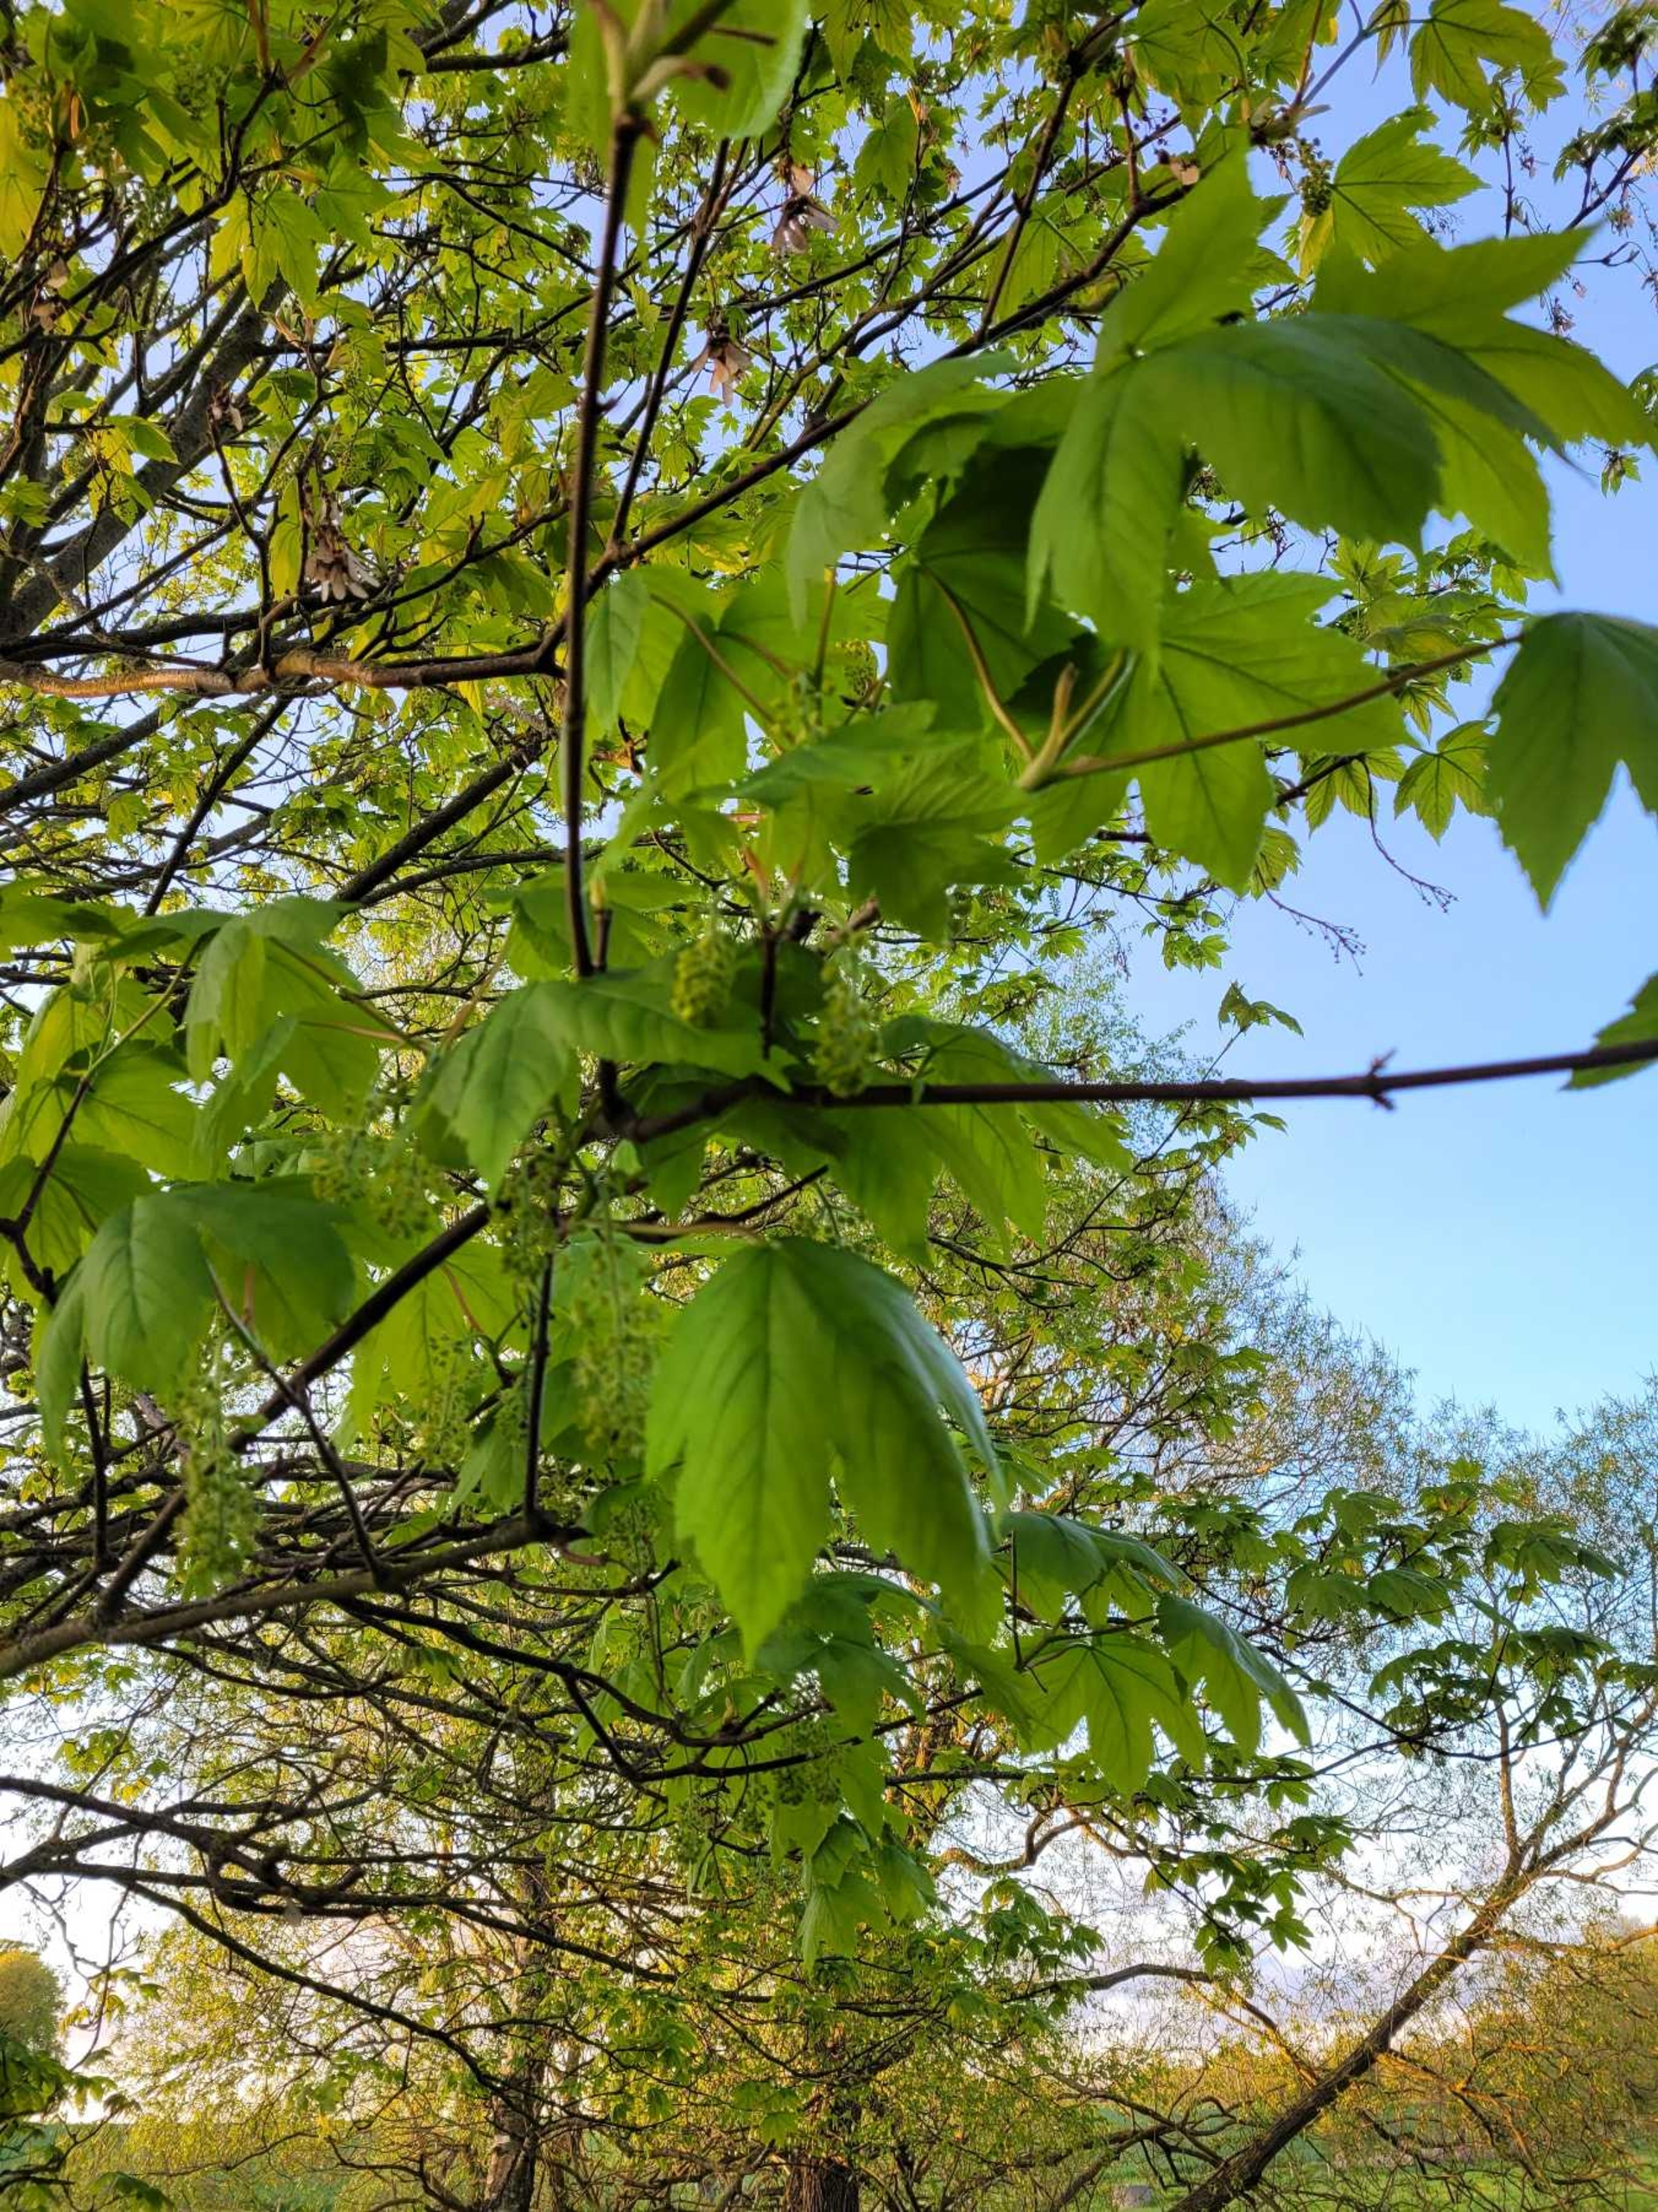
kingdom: Plantae
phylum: Tracheophyta
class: Magnoliopsida
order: Sapindales
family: Sapindaceae
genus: Acer
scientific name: Acer pseudoplatanus
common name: Ahorn
